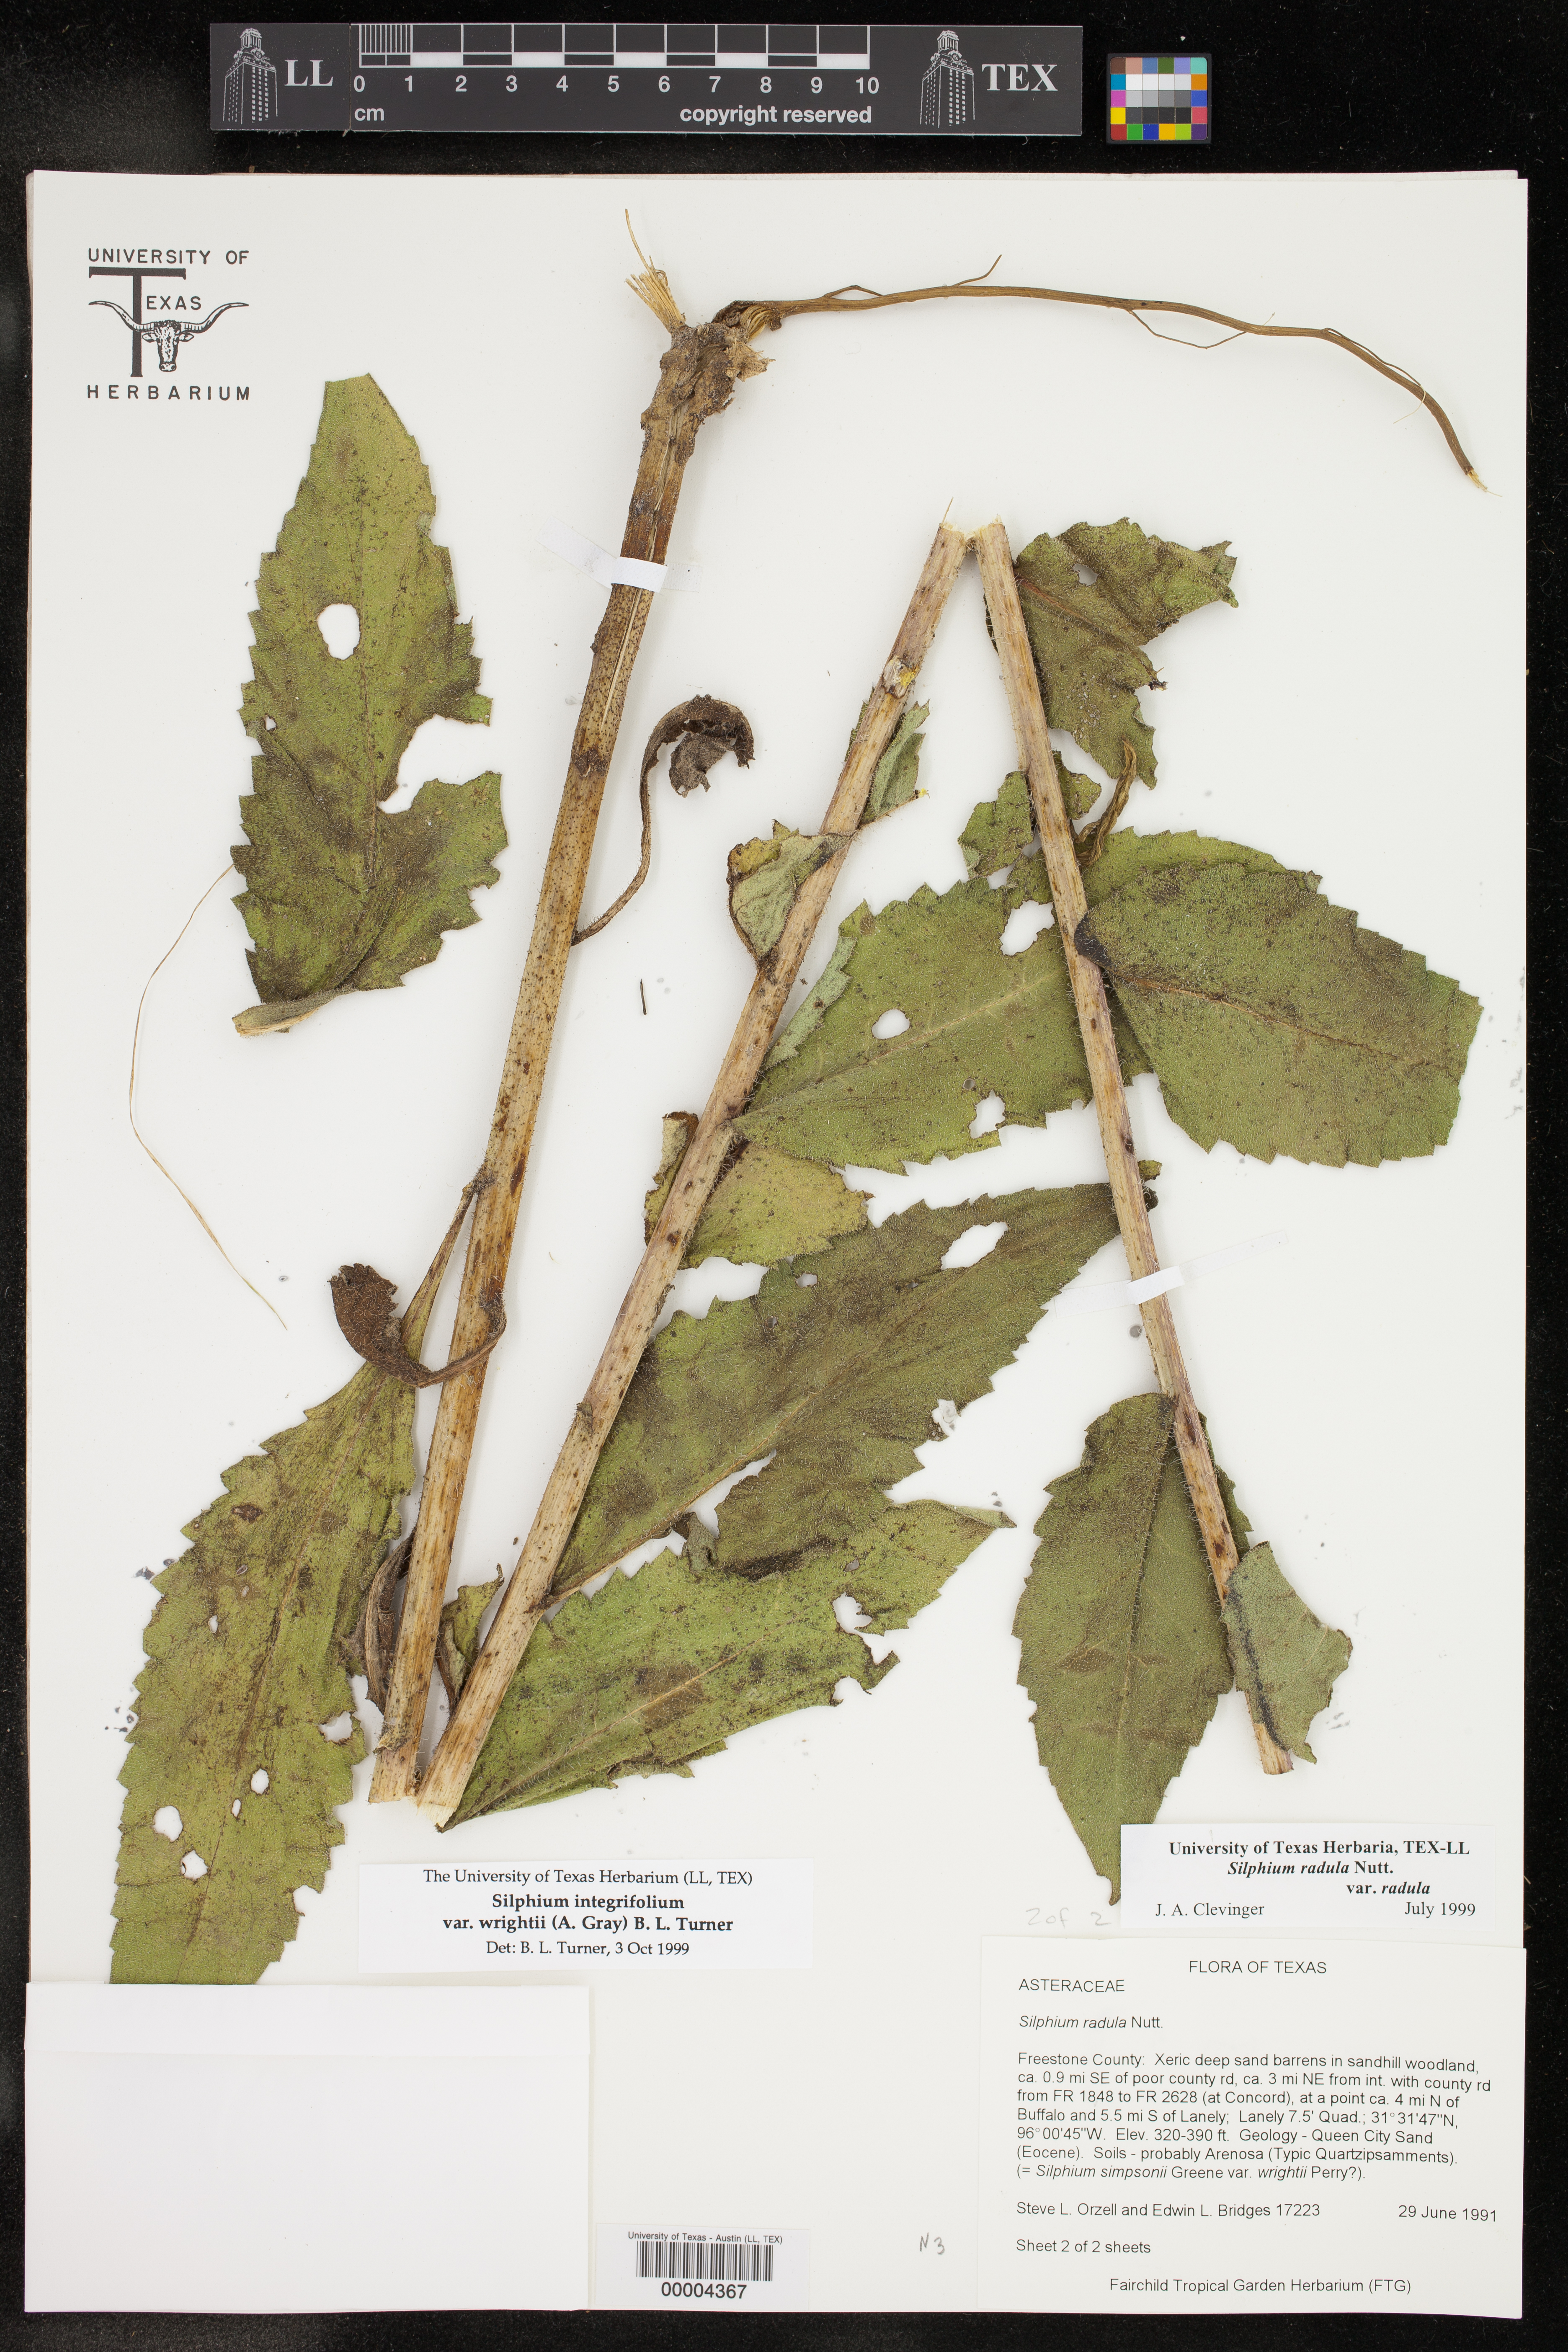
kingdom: Plantae
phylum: Tracheophyta
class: Magnoliopsida
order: Asterales
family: Asteraceae
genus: Silphium
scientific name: Silphium radula
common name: Roughleaf rosinweed
